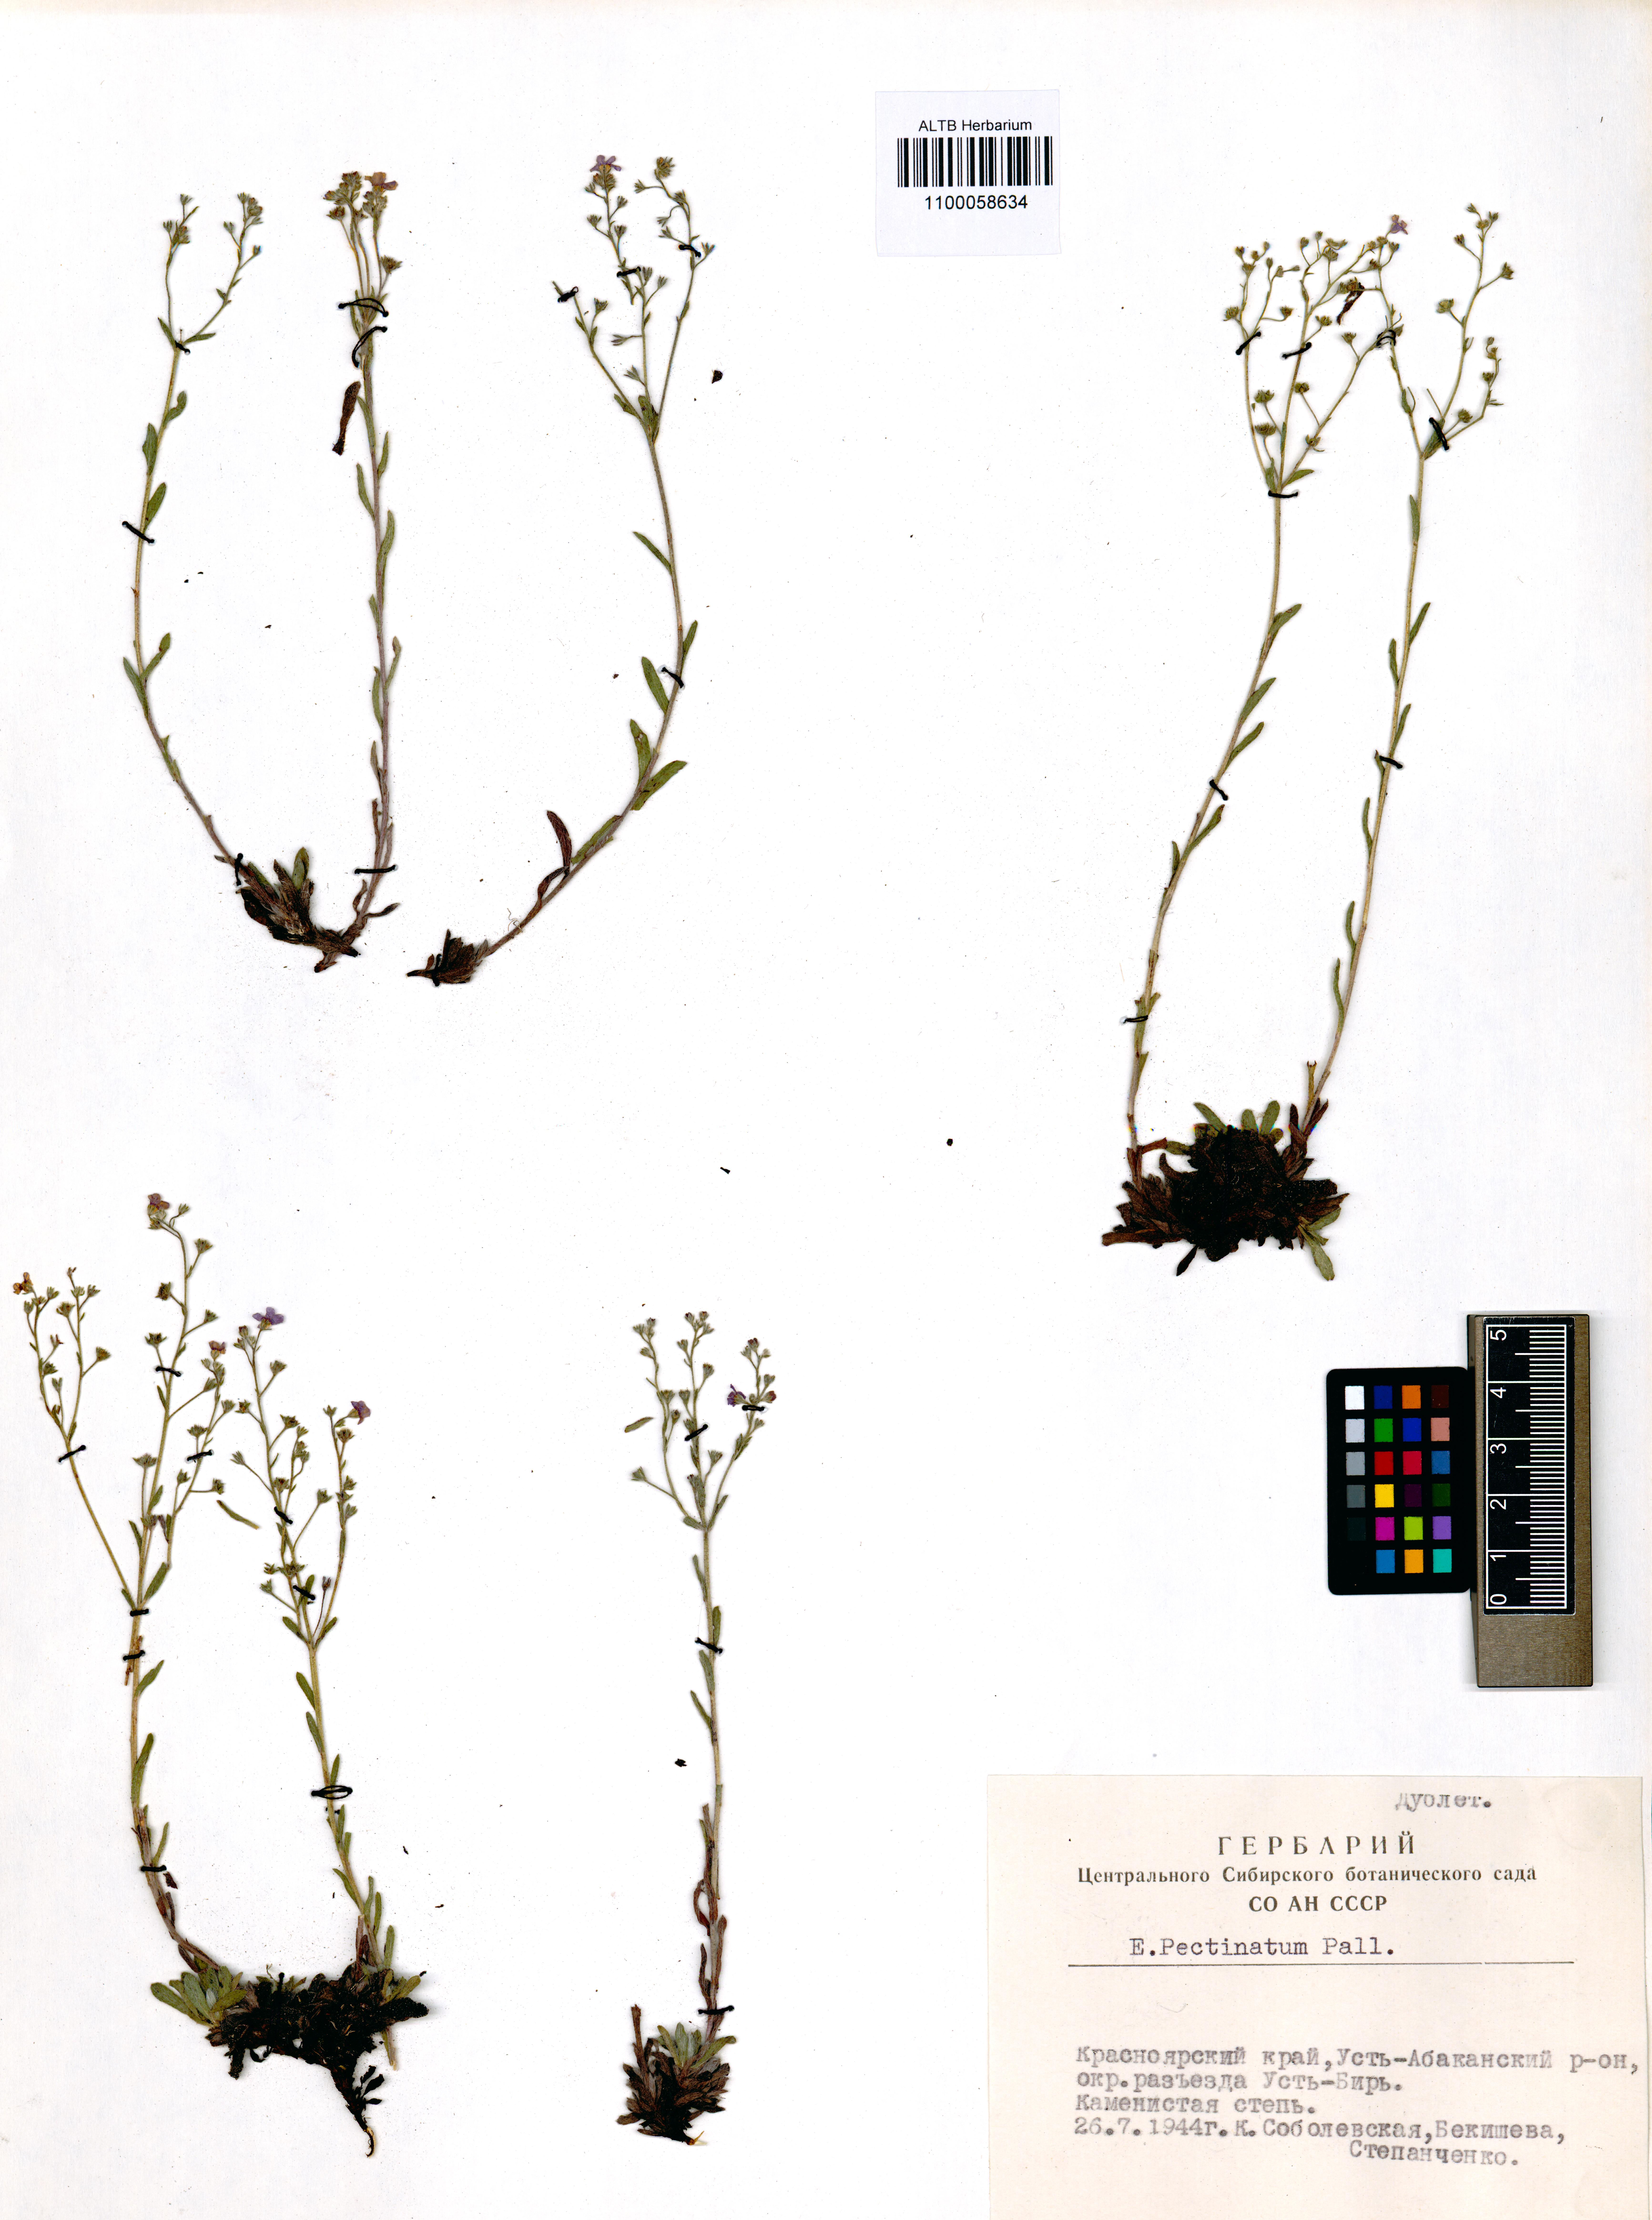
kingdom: Plantae
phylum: Tracheophyta
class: Magnoliopsida
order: Boraginales
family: Boraginaceae
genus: Eritrichium
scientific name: Eritrichium pectinatum
